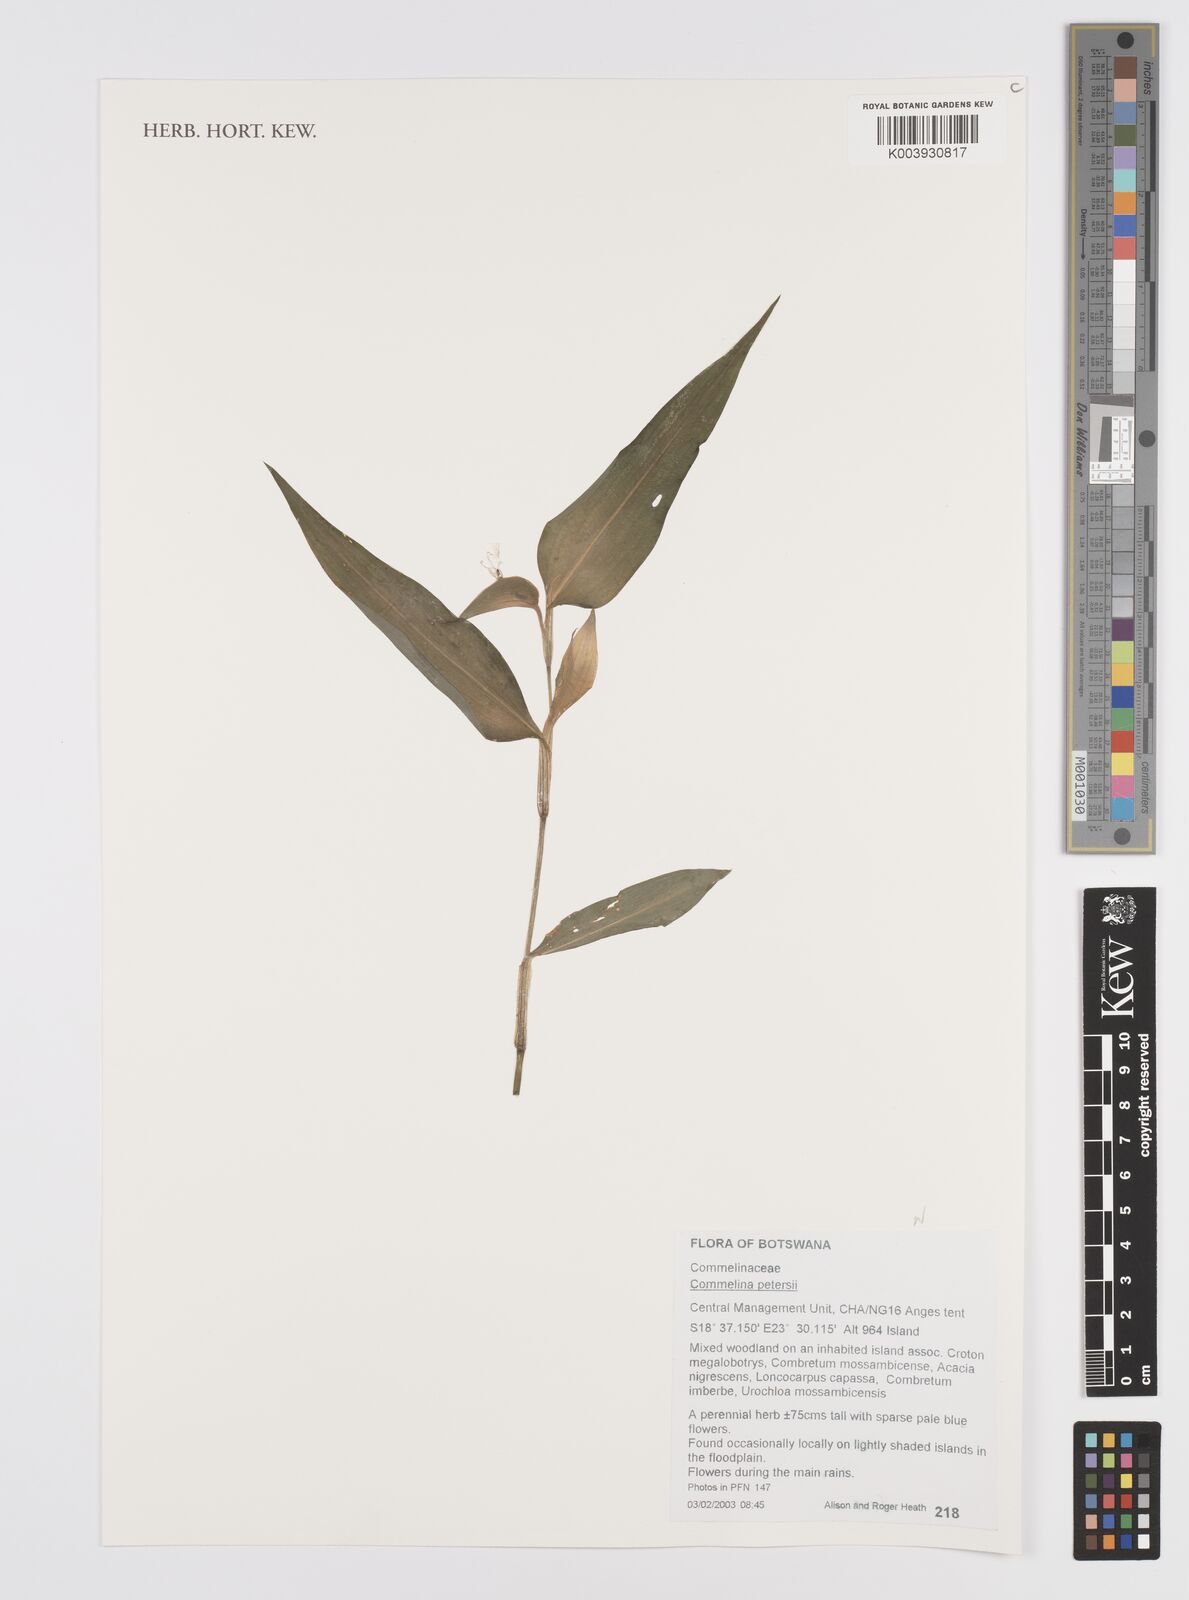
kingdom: Plantae
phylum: Tracheophyta
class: Liliopsida
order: Commelinales
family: Commelinaceae
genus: Commelina
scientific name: Commelina petersii
